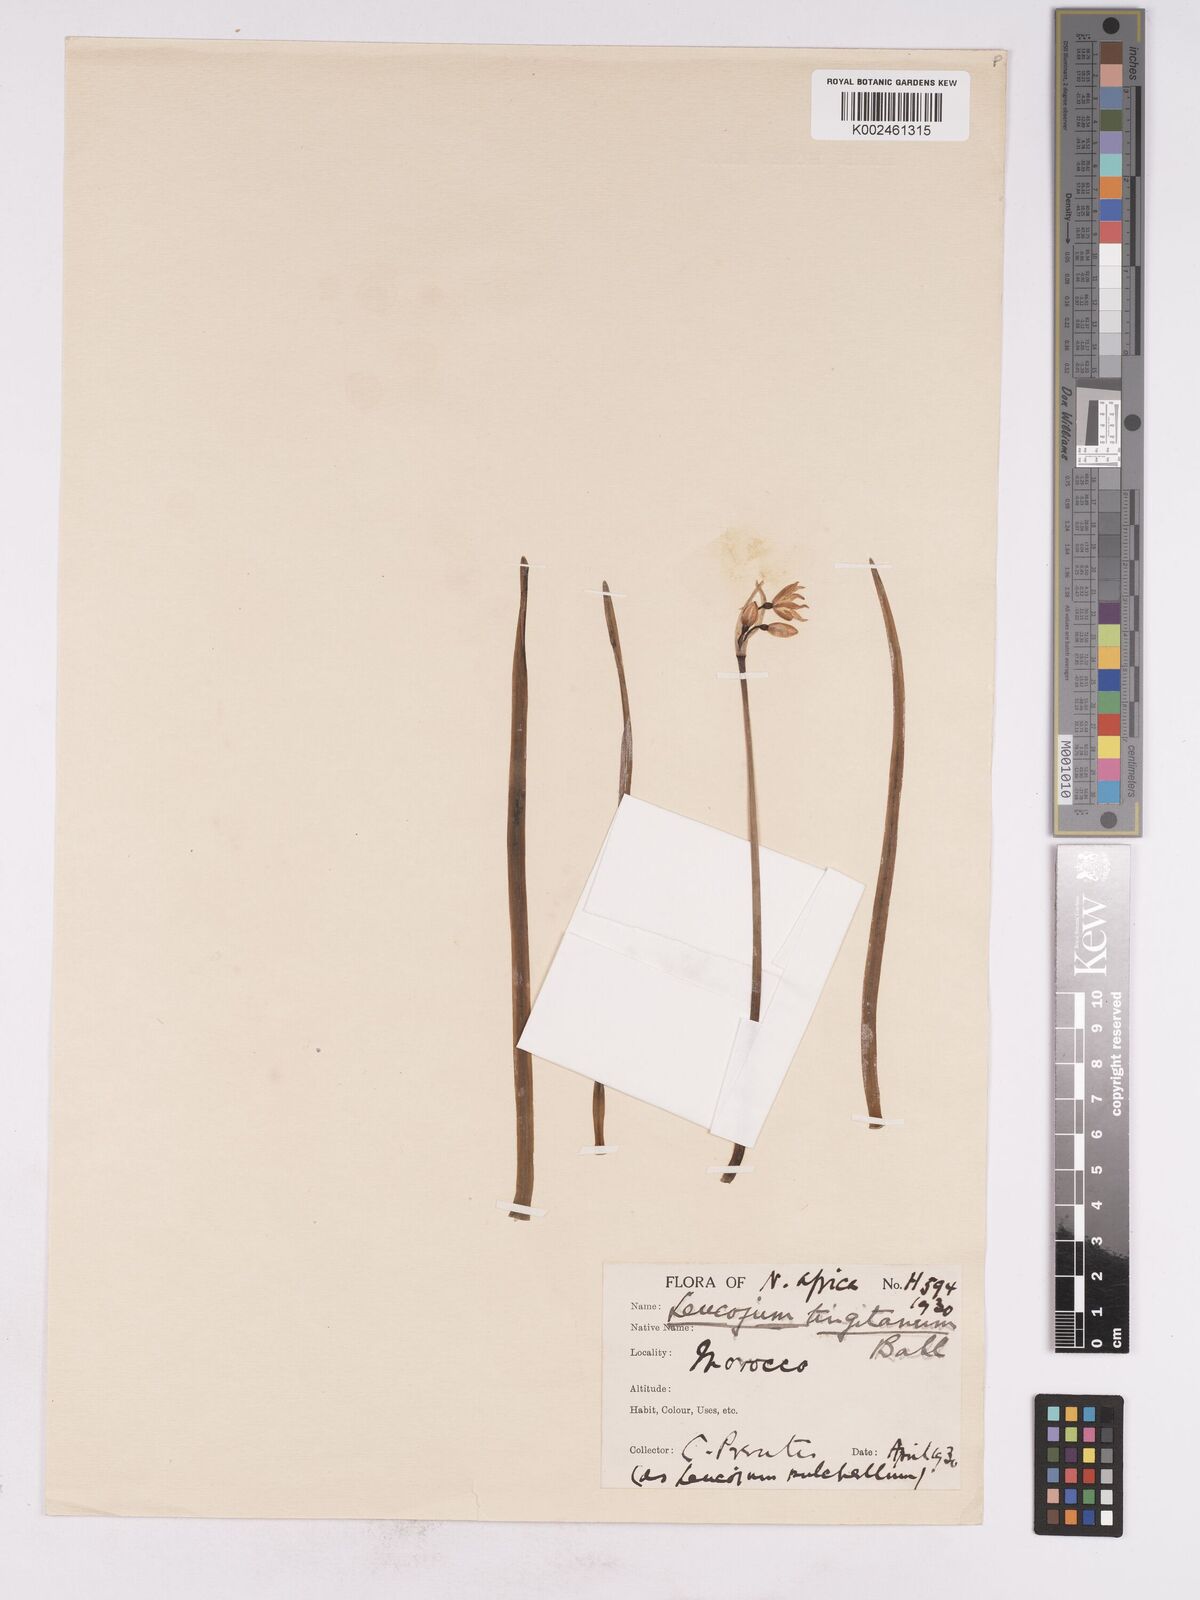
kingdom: Plantae
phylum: Tracheophyta
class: Liliopsida
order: Asparagales
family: Amaryllidaceae
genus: Acis
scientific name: Acis tingitana
